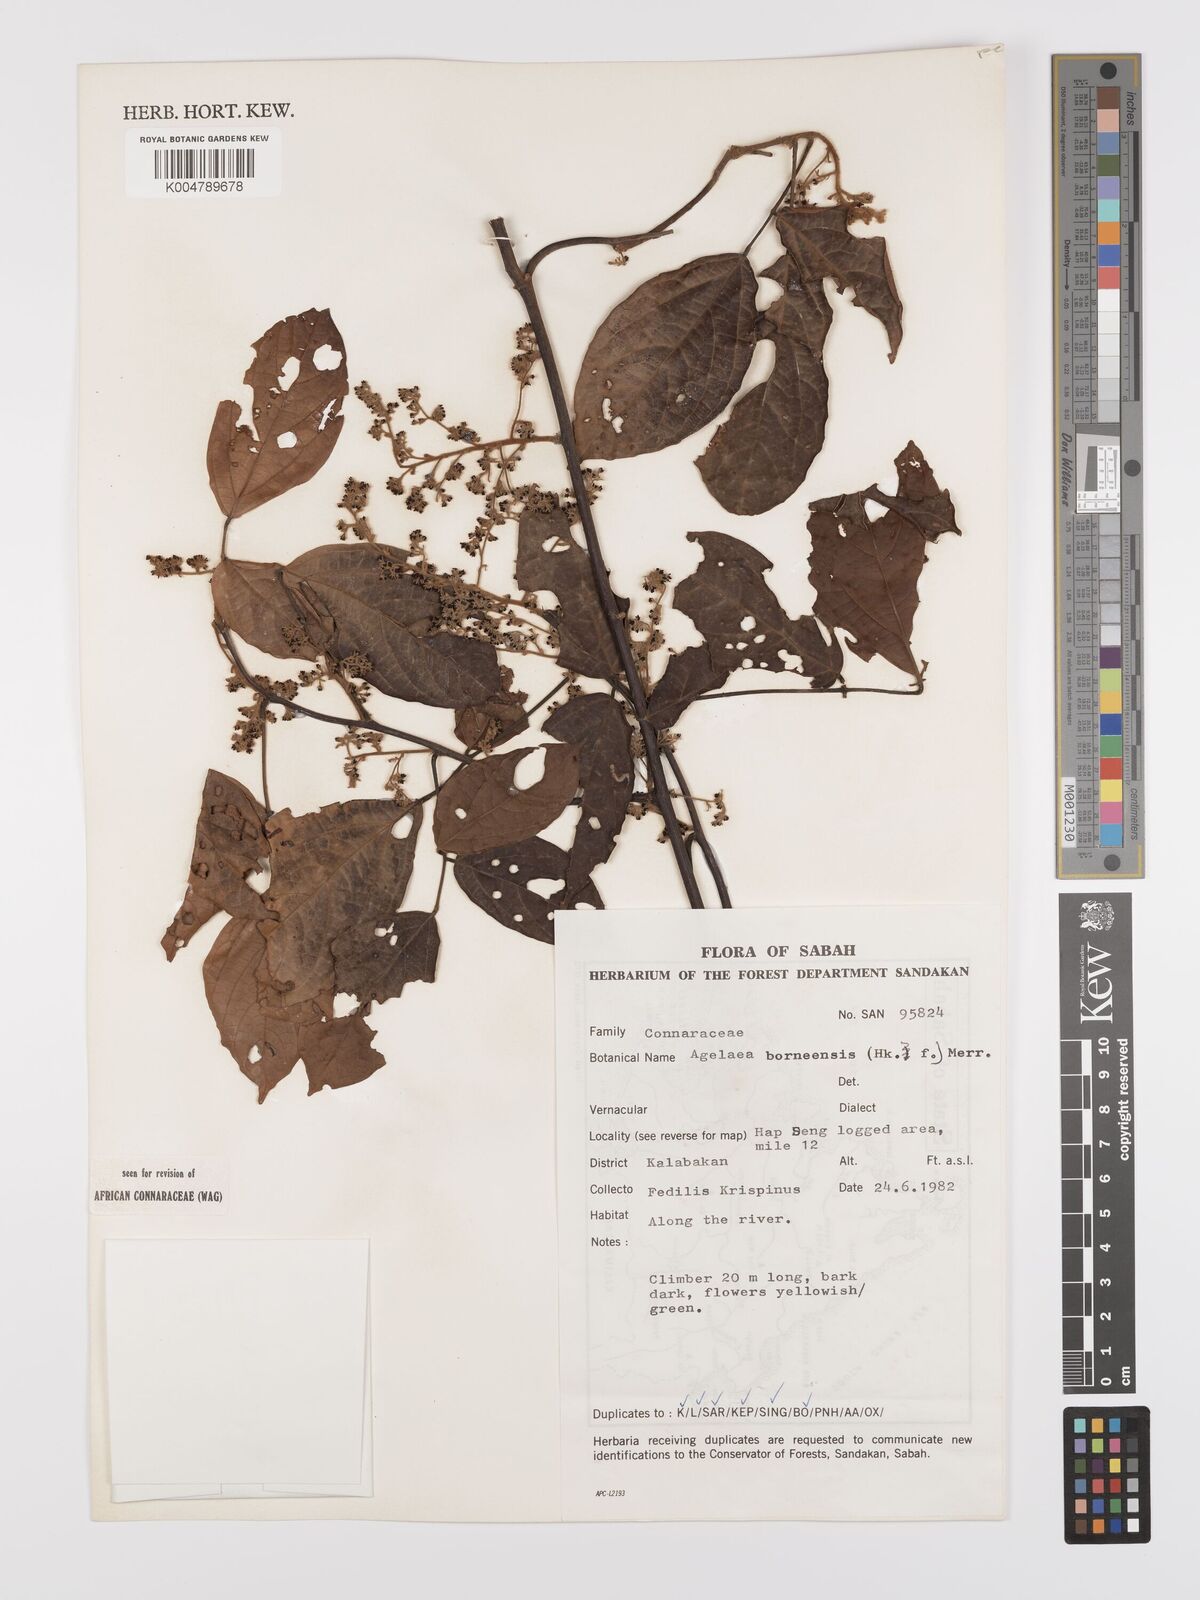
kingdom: Plantae
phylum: Tracheophyta
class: Magnoliopsida
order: Oxalidales
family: Connaraceae
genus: Agelaea
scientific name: Agelaea borneensis
